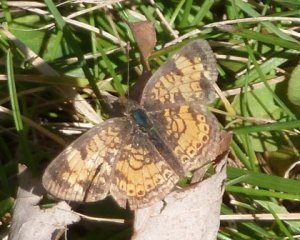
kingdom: Animalia
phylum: Arthropoda
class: Insecta
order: Lepidoptera
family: Nymphalidae
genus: Phyciodes
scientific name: Phyciodes
